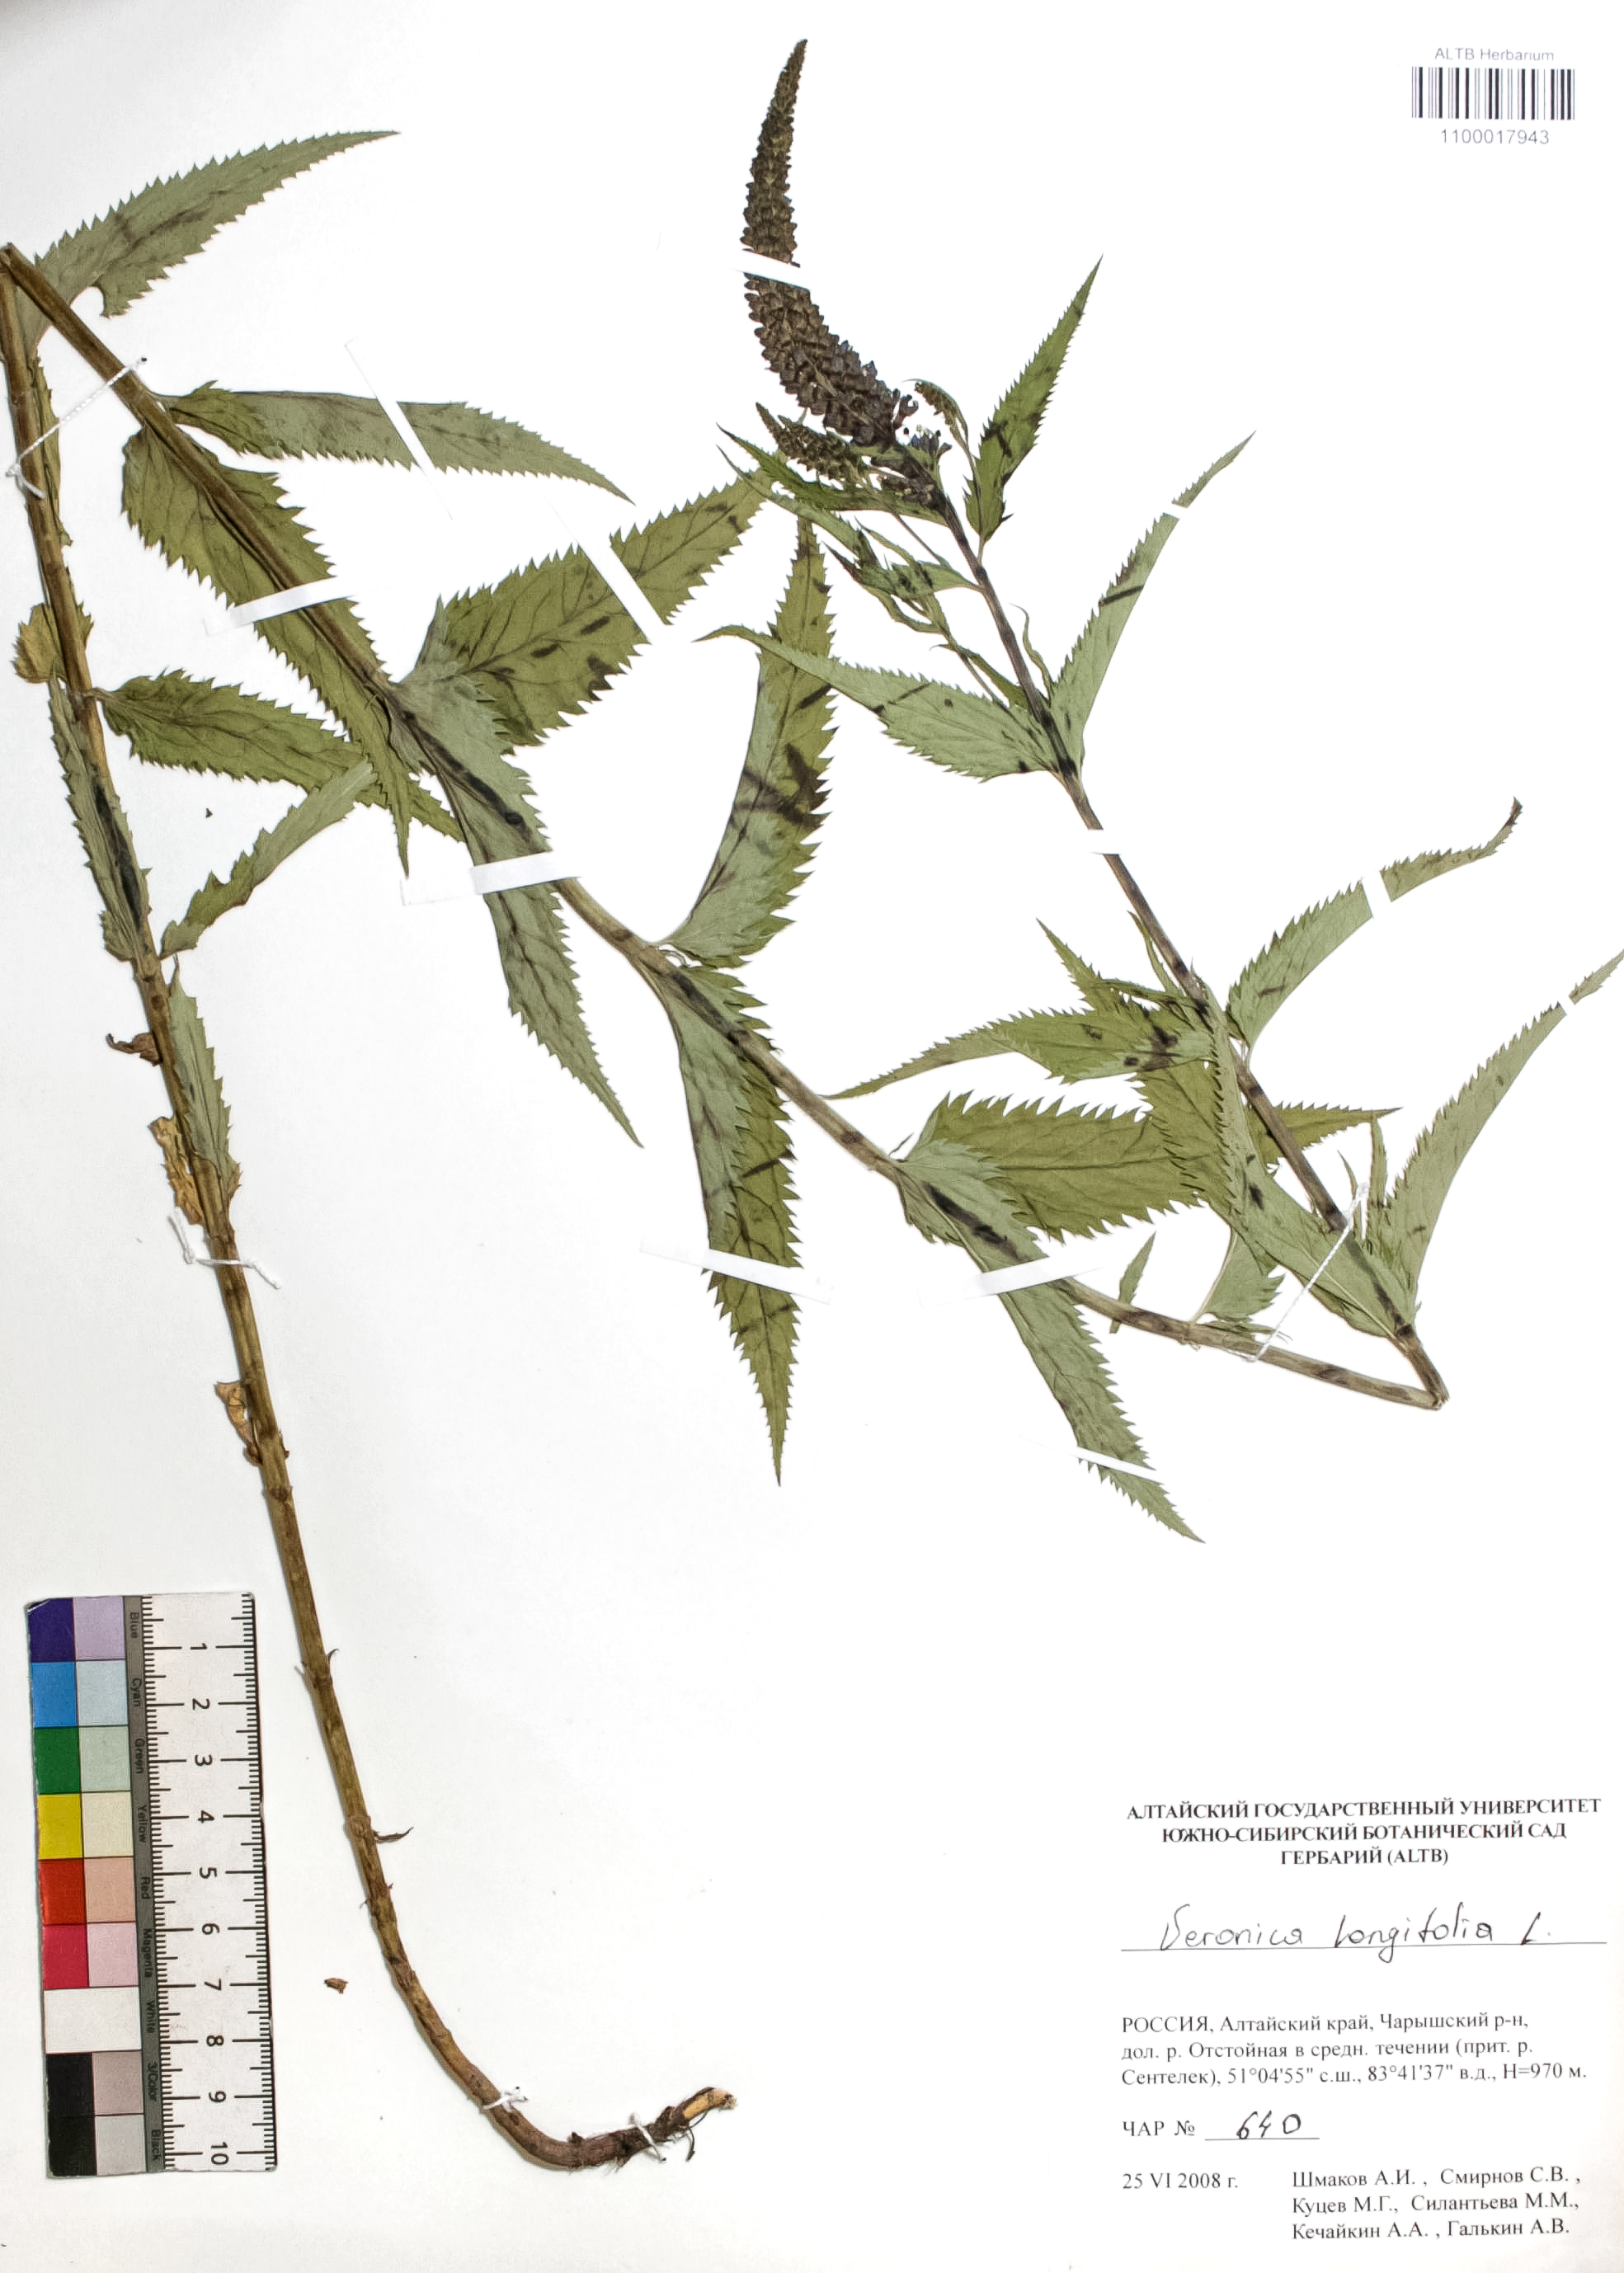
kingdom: Plantae
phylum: Tracheophyta
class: Magnoliopsida
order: Lamiales
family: Plantaginaceae
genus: Veronica
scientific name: Veronica longifolia
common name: Garden speedwell
